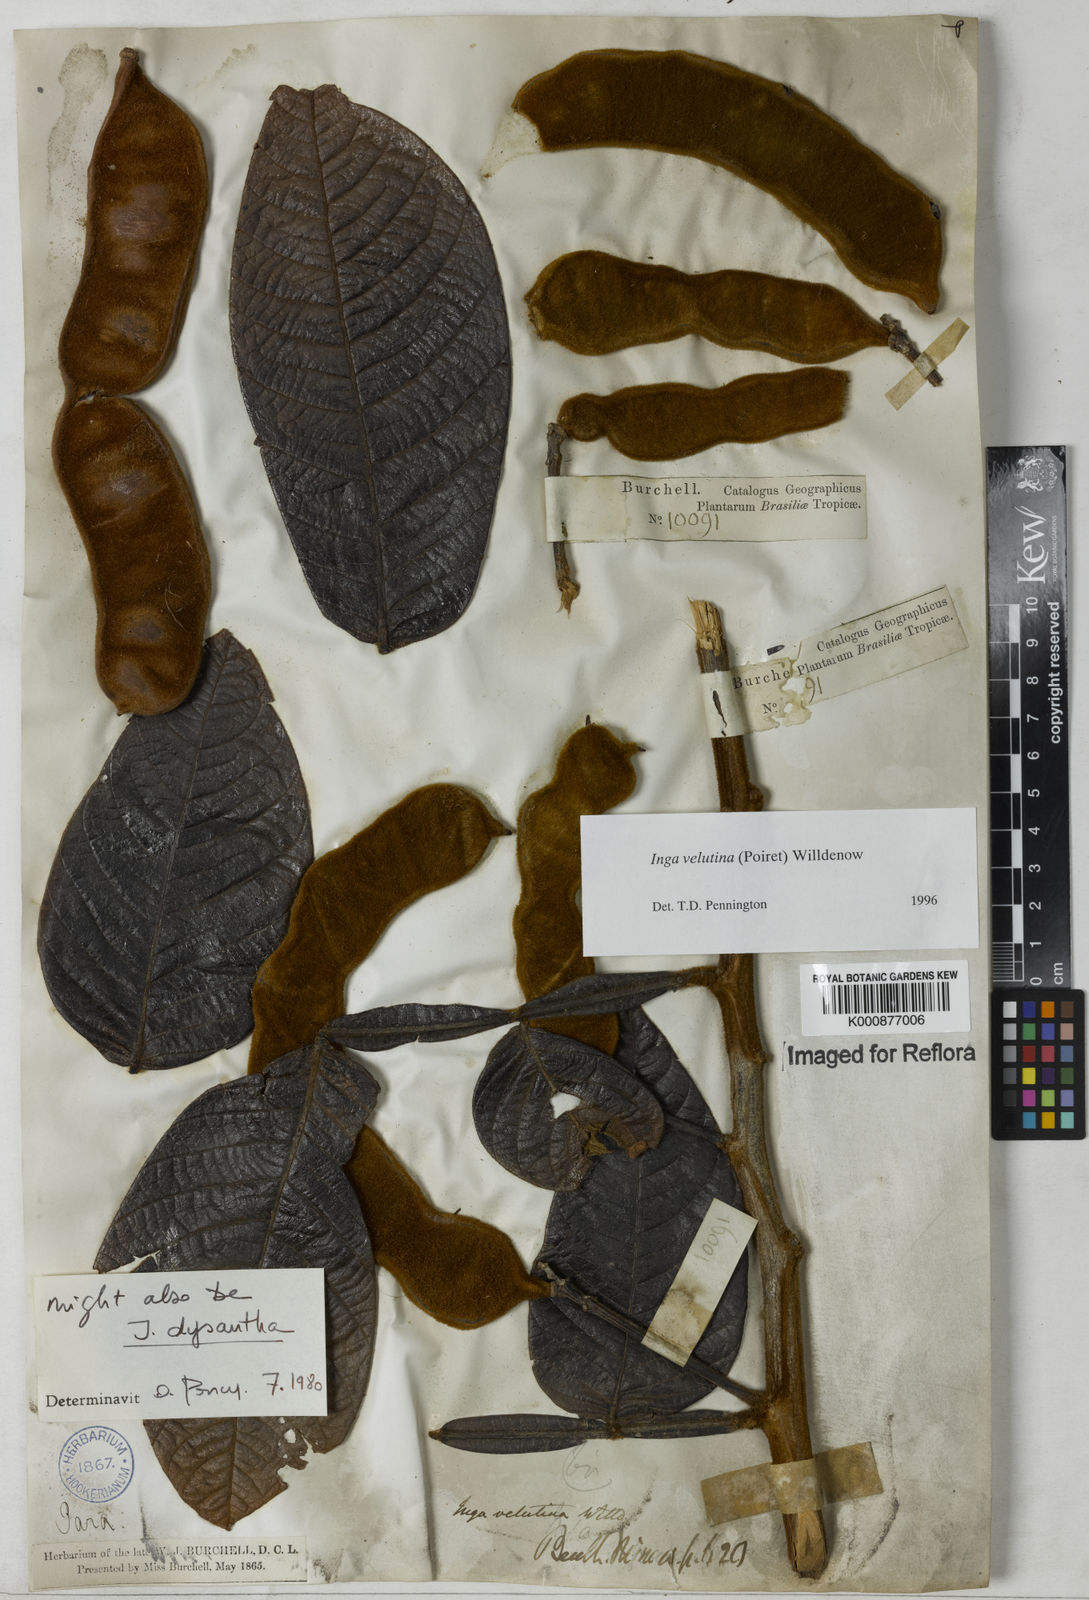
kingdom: Plantae
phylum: Tracheophyta
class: Magnoliopsida
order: Fabales
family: Fabaceae
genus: Inga
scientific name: Inga velutina
